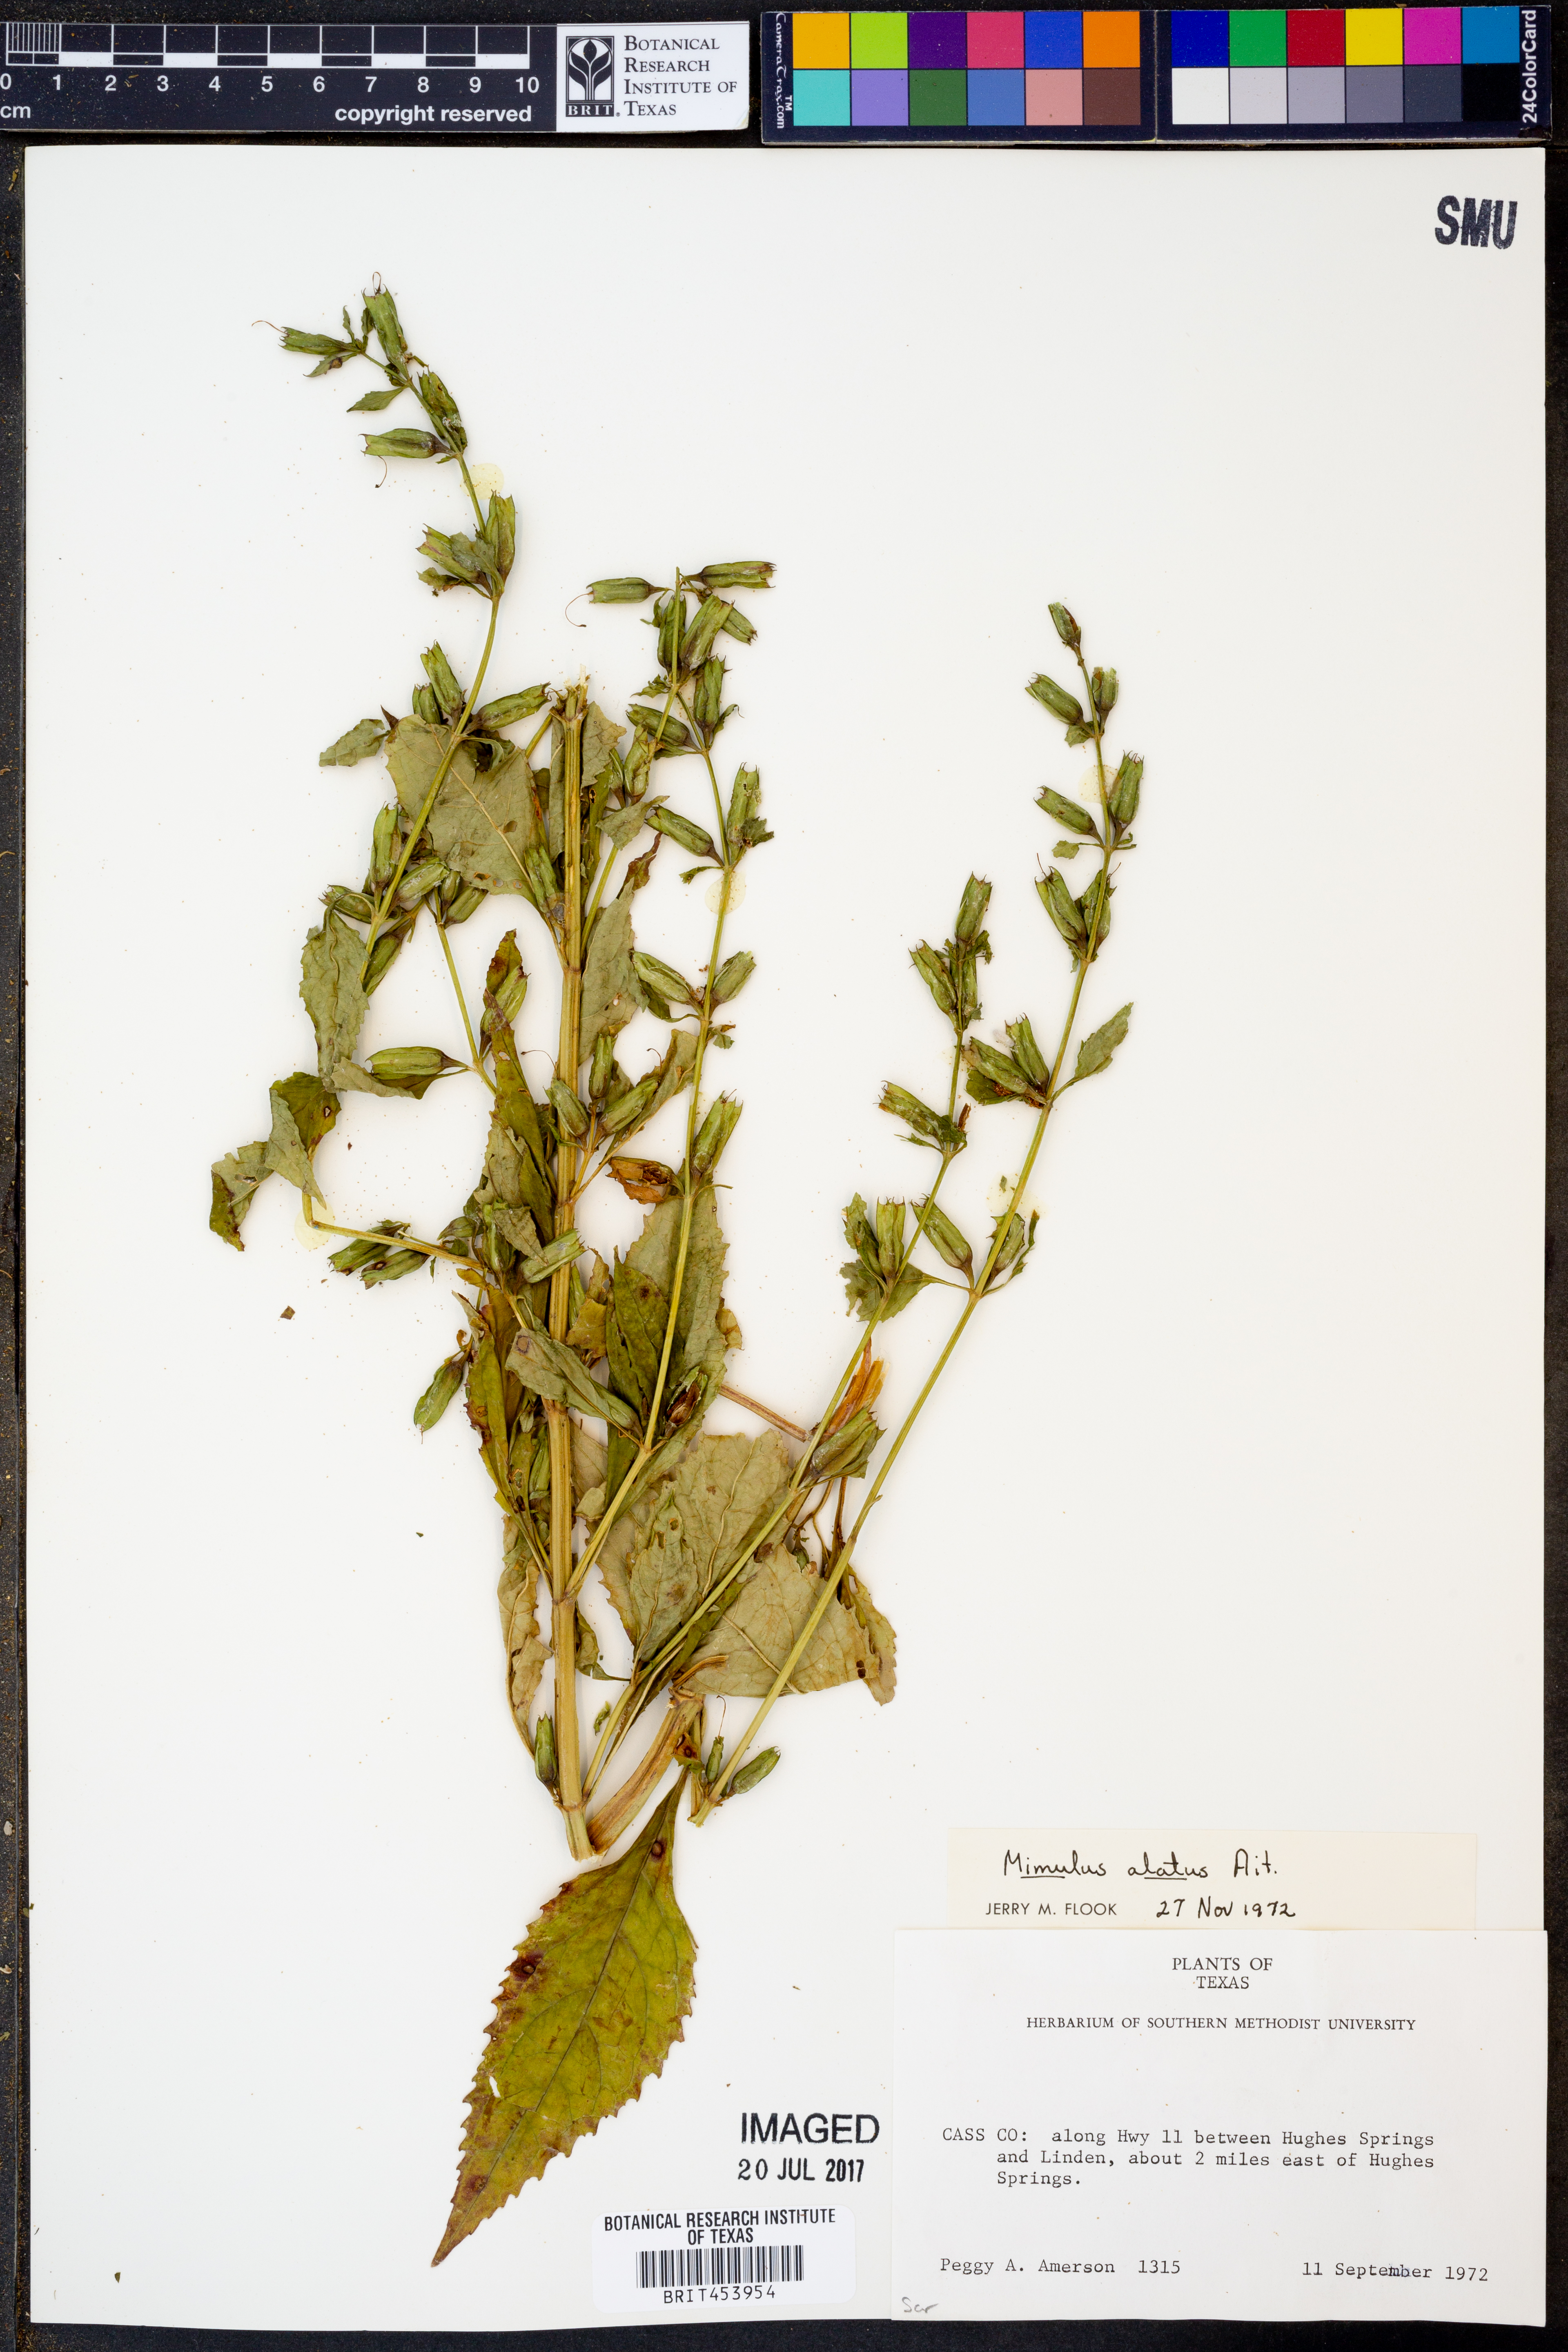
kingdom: Plantae
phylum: Tracheophyta
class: Magnoliopsida
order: Lamiales
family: Phrymaceae
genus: Mimulus
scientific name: Mimulus alatus
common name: Sharp-wing monkey-flower
